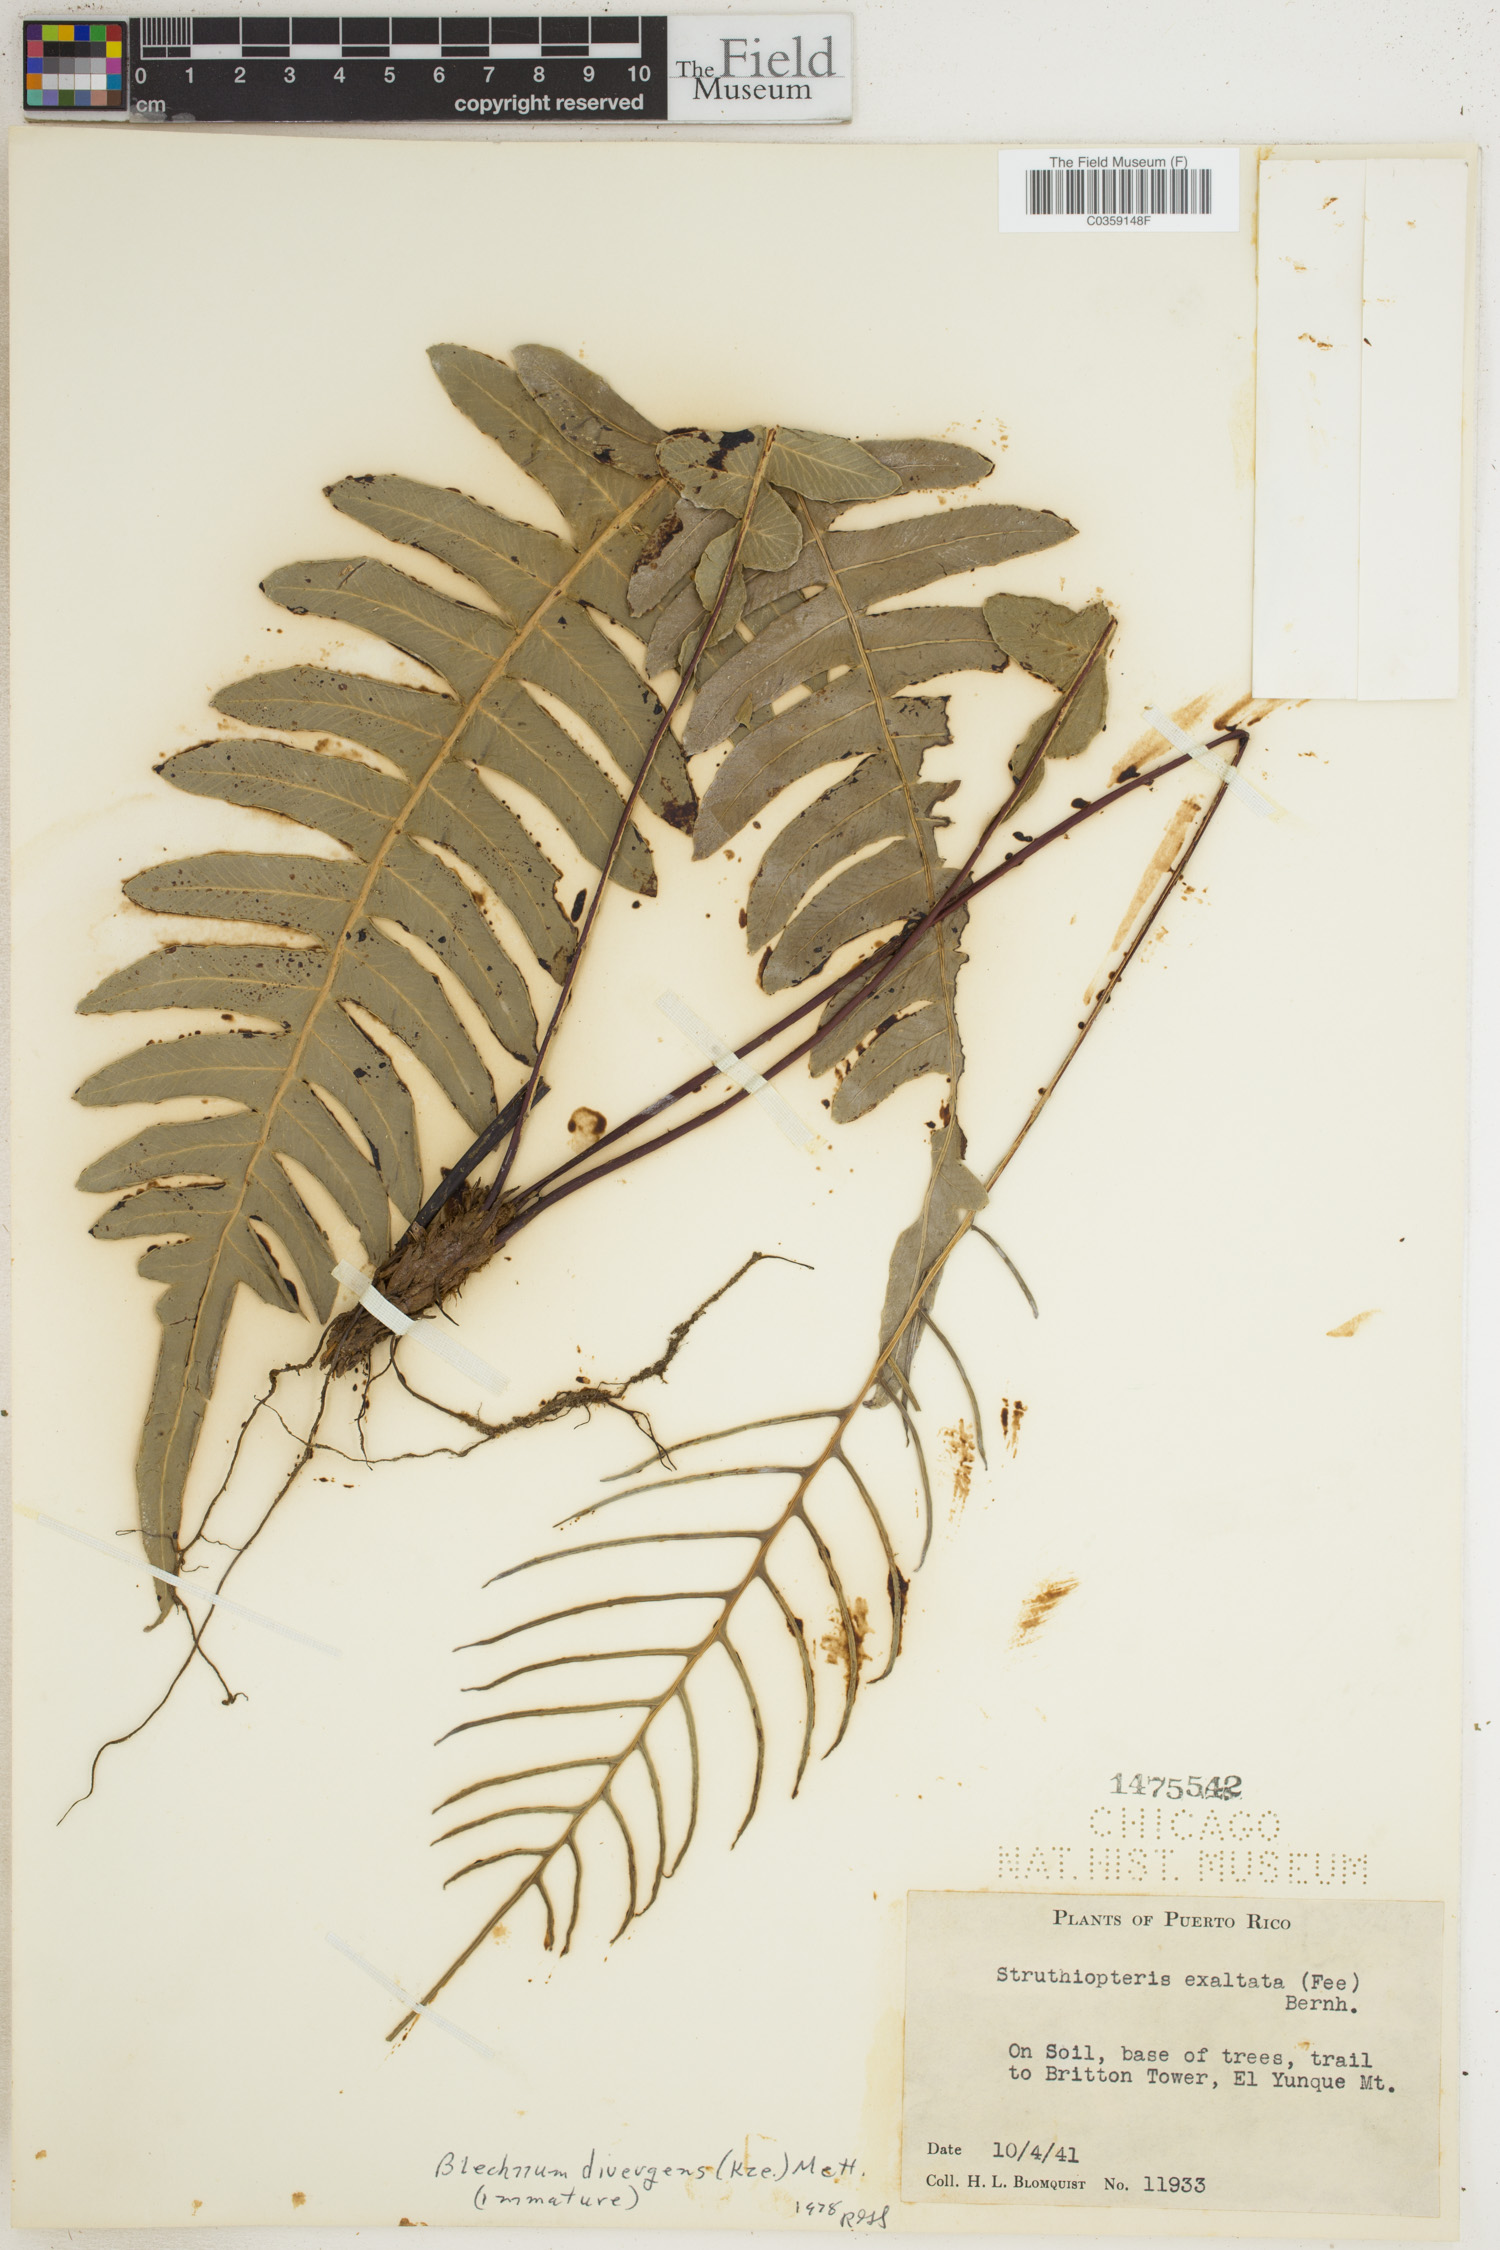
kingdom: Plantae
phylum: Tracheophyta
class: Polypodiopsida
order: Polypodiales
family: Blechnaceae
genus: Austroblechnum
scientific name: Austroblechnum divergens
